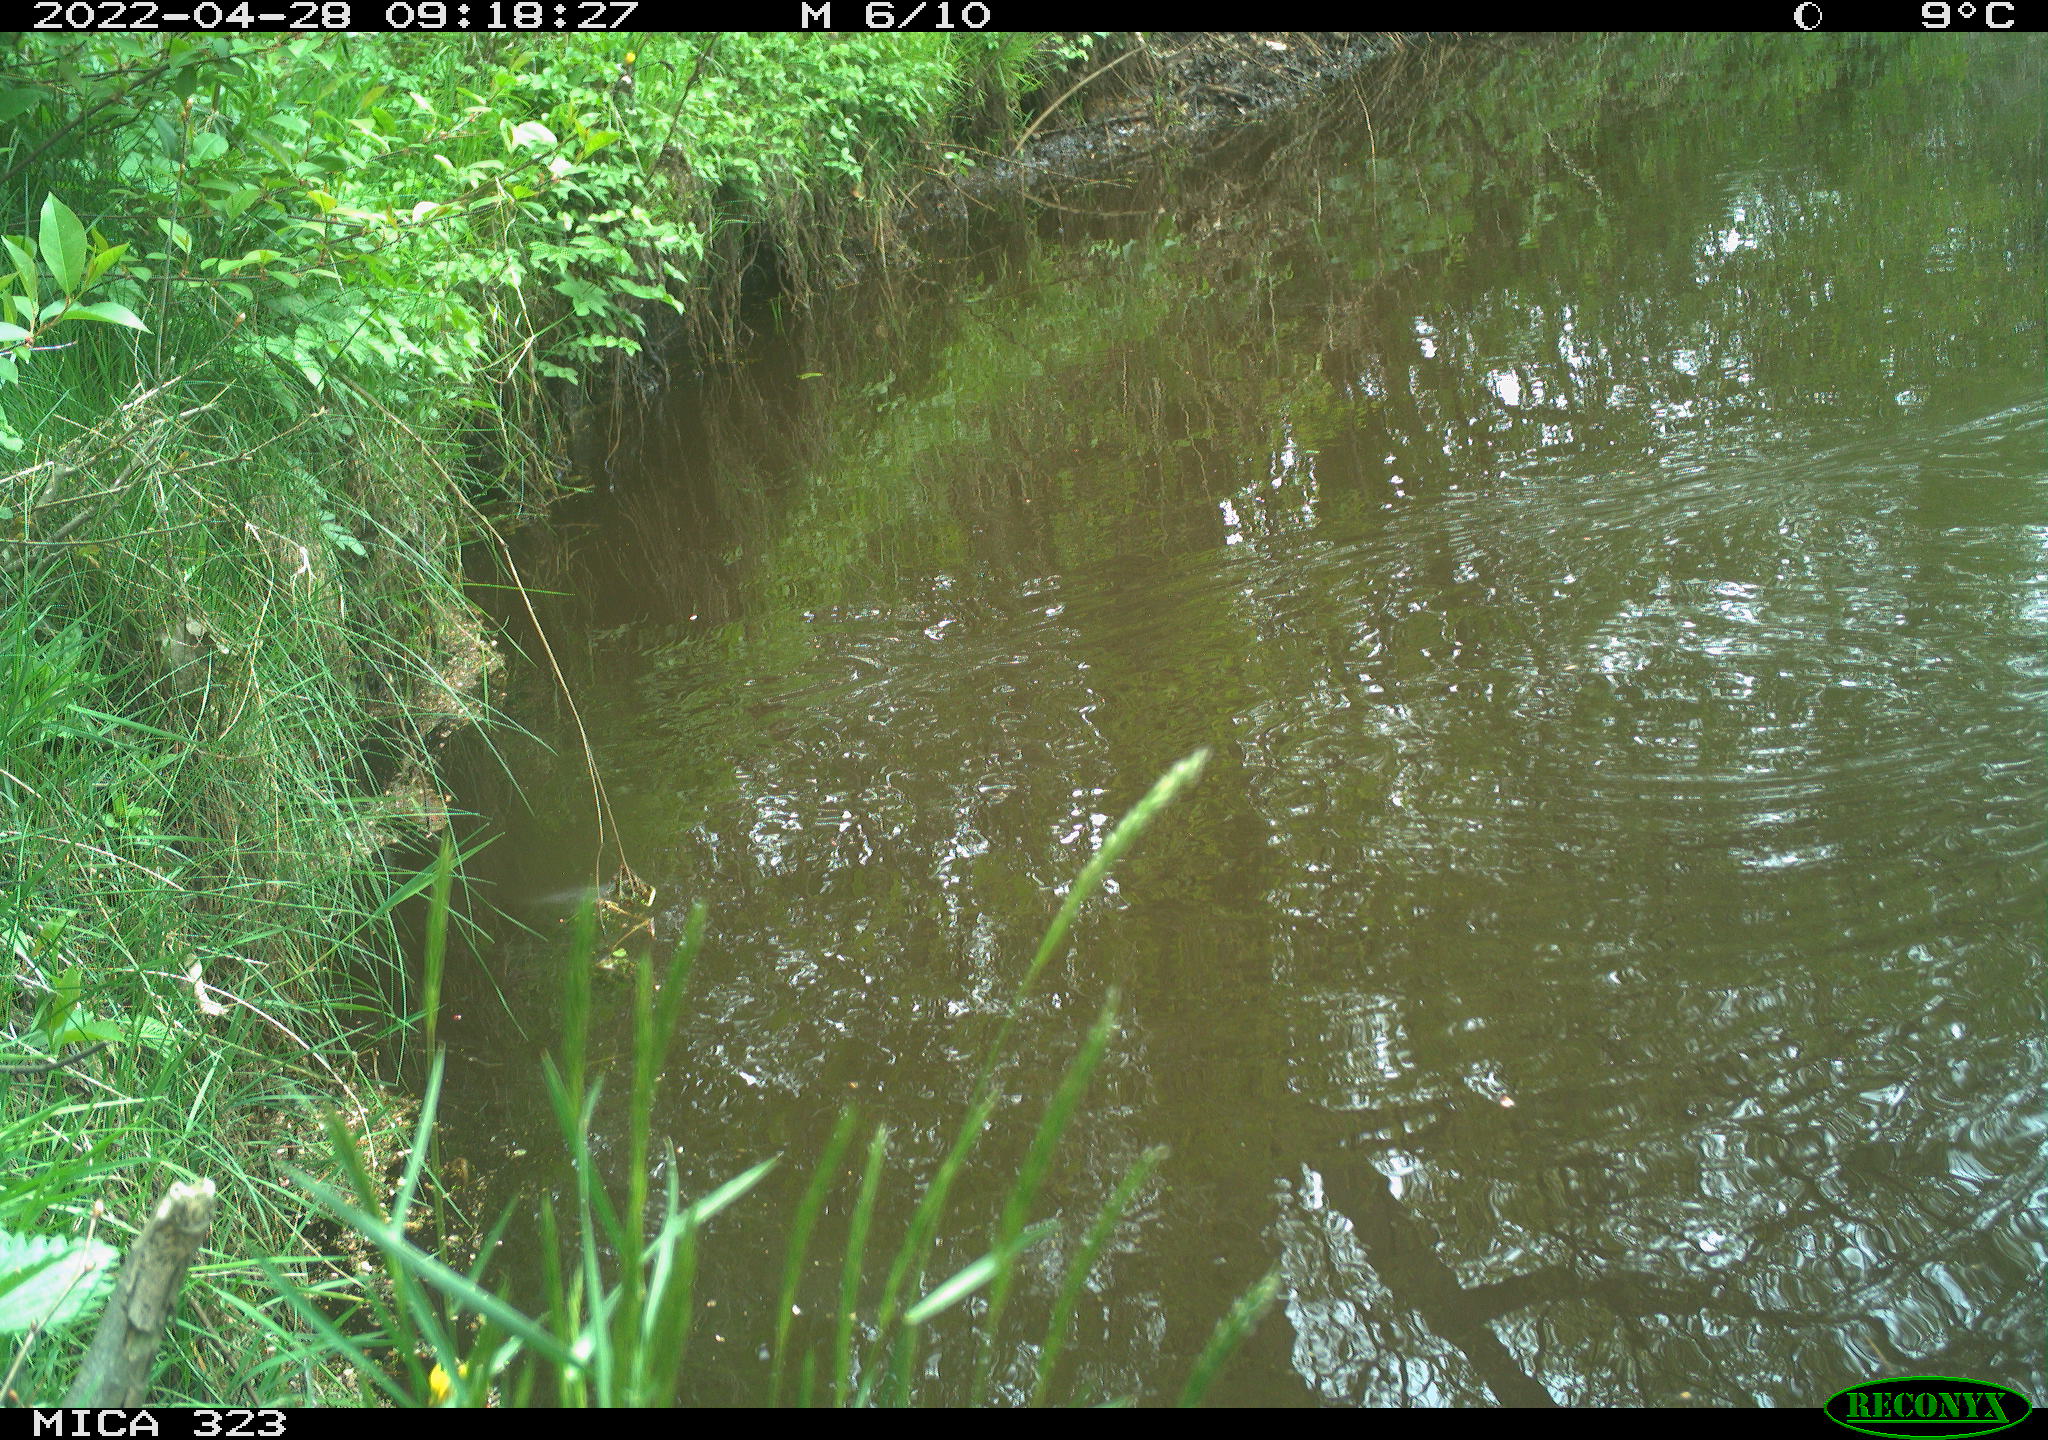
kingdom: Animalia
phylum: Chordata
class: Aves
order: Gruiformes
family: Rallidae
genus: Gallinula
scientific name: Gallinula chloropus
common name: Common moorhen
